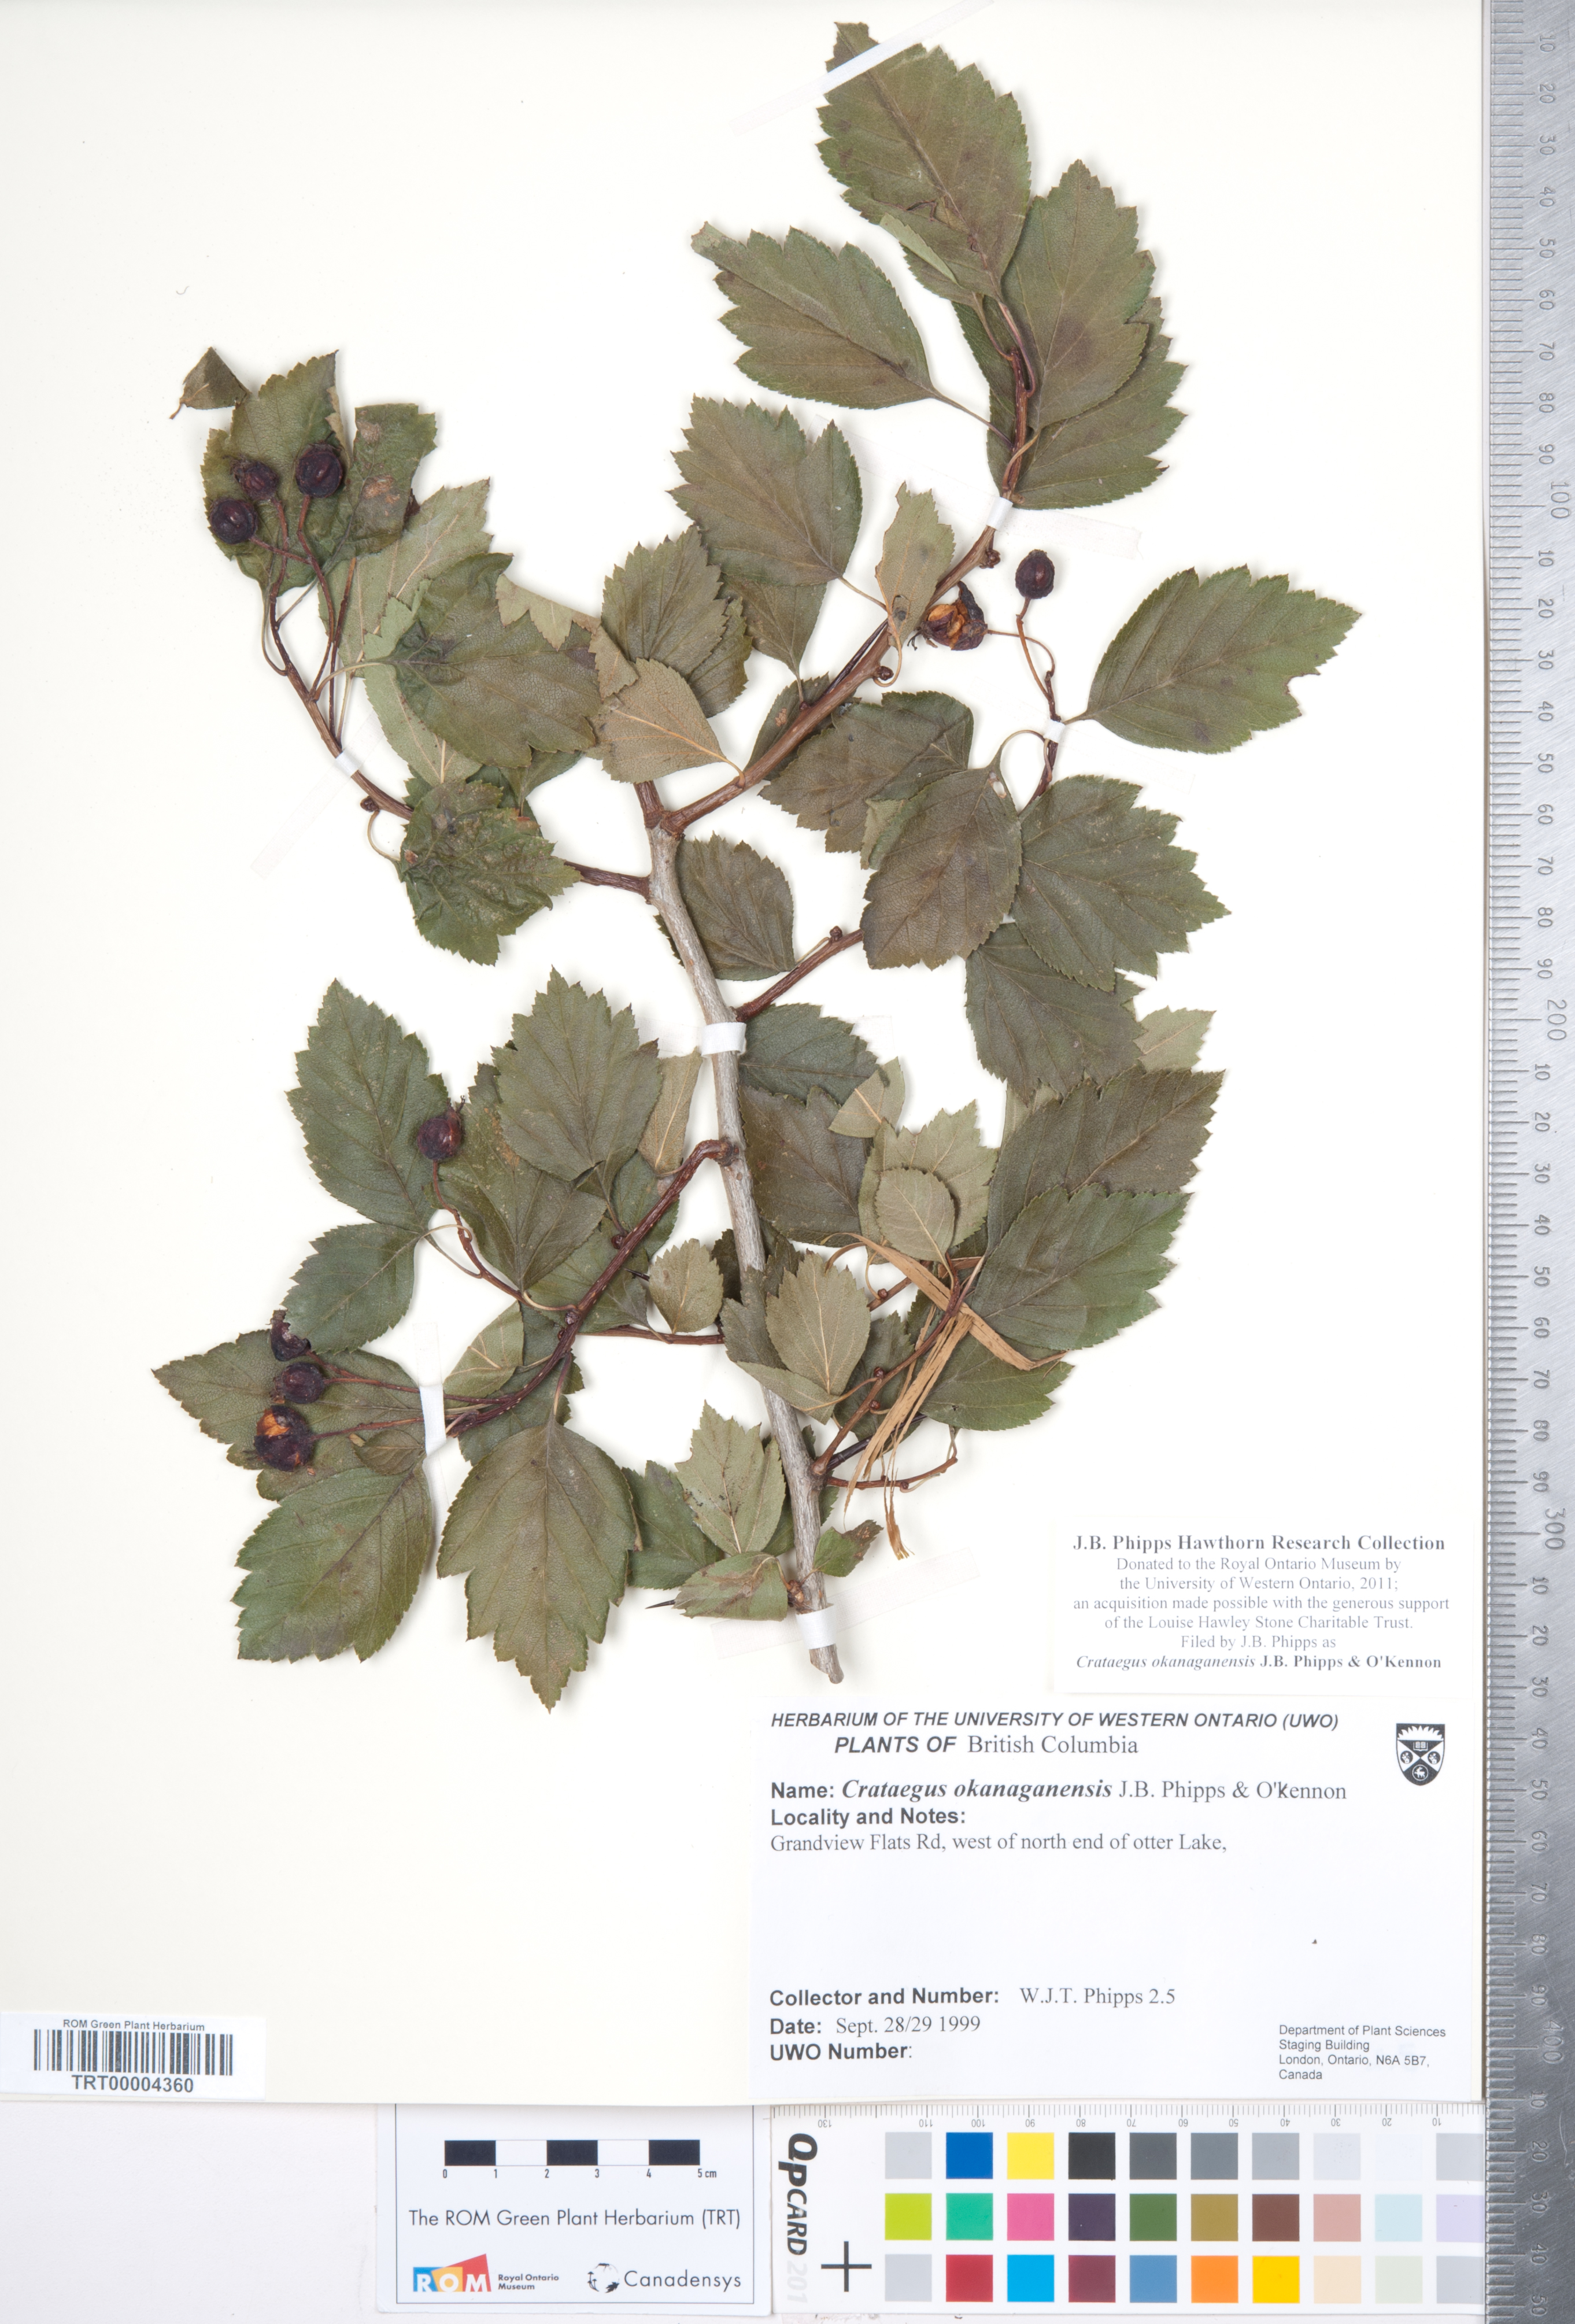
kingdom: Plantae
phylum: Tracheophyta
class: Magnoliopsida
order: Rosales
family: Rosaceae
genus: Crataegus
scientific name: Crataegus okanaganensis
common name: Okanagan valley hawthorn
